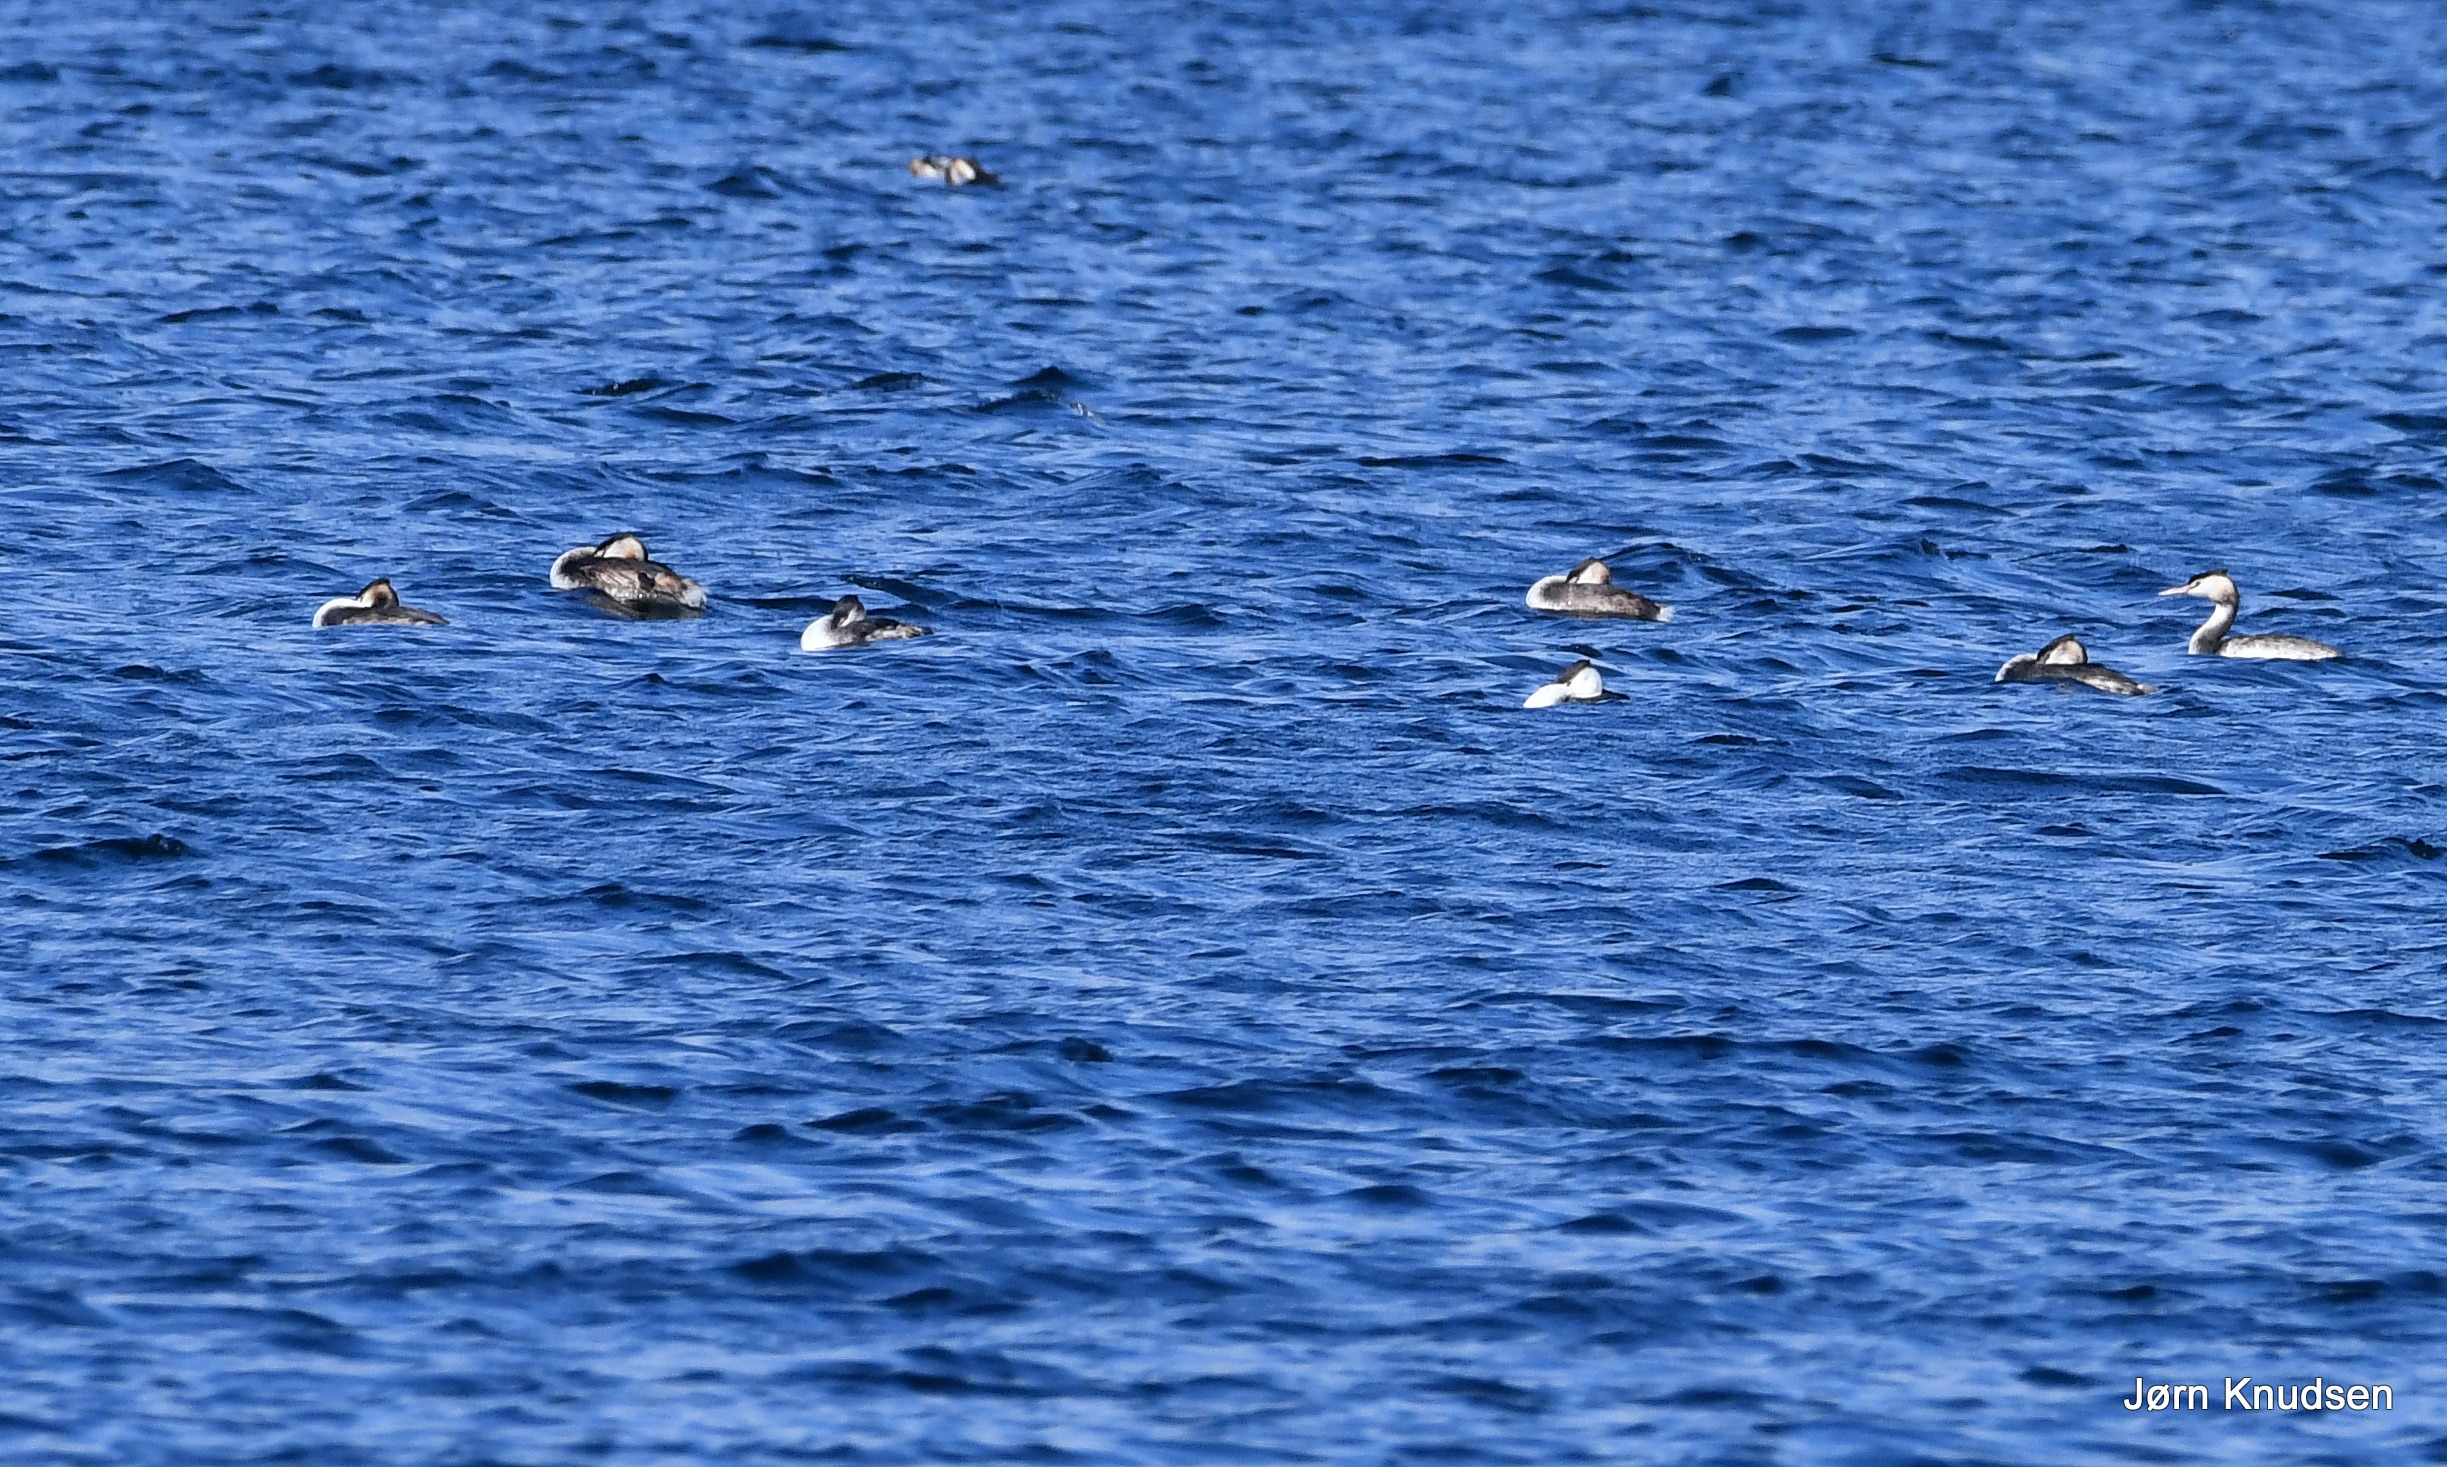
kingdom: Animalia
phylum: Chordata
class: Aves
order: Podicipediformes
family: Podicipedidae
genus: Podiceps
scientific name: Podiceps cristatus
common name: Toppet lappedykker
